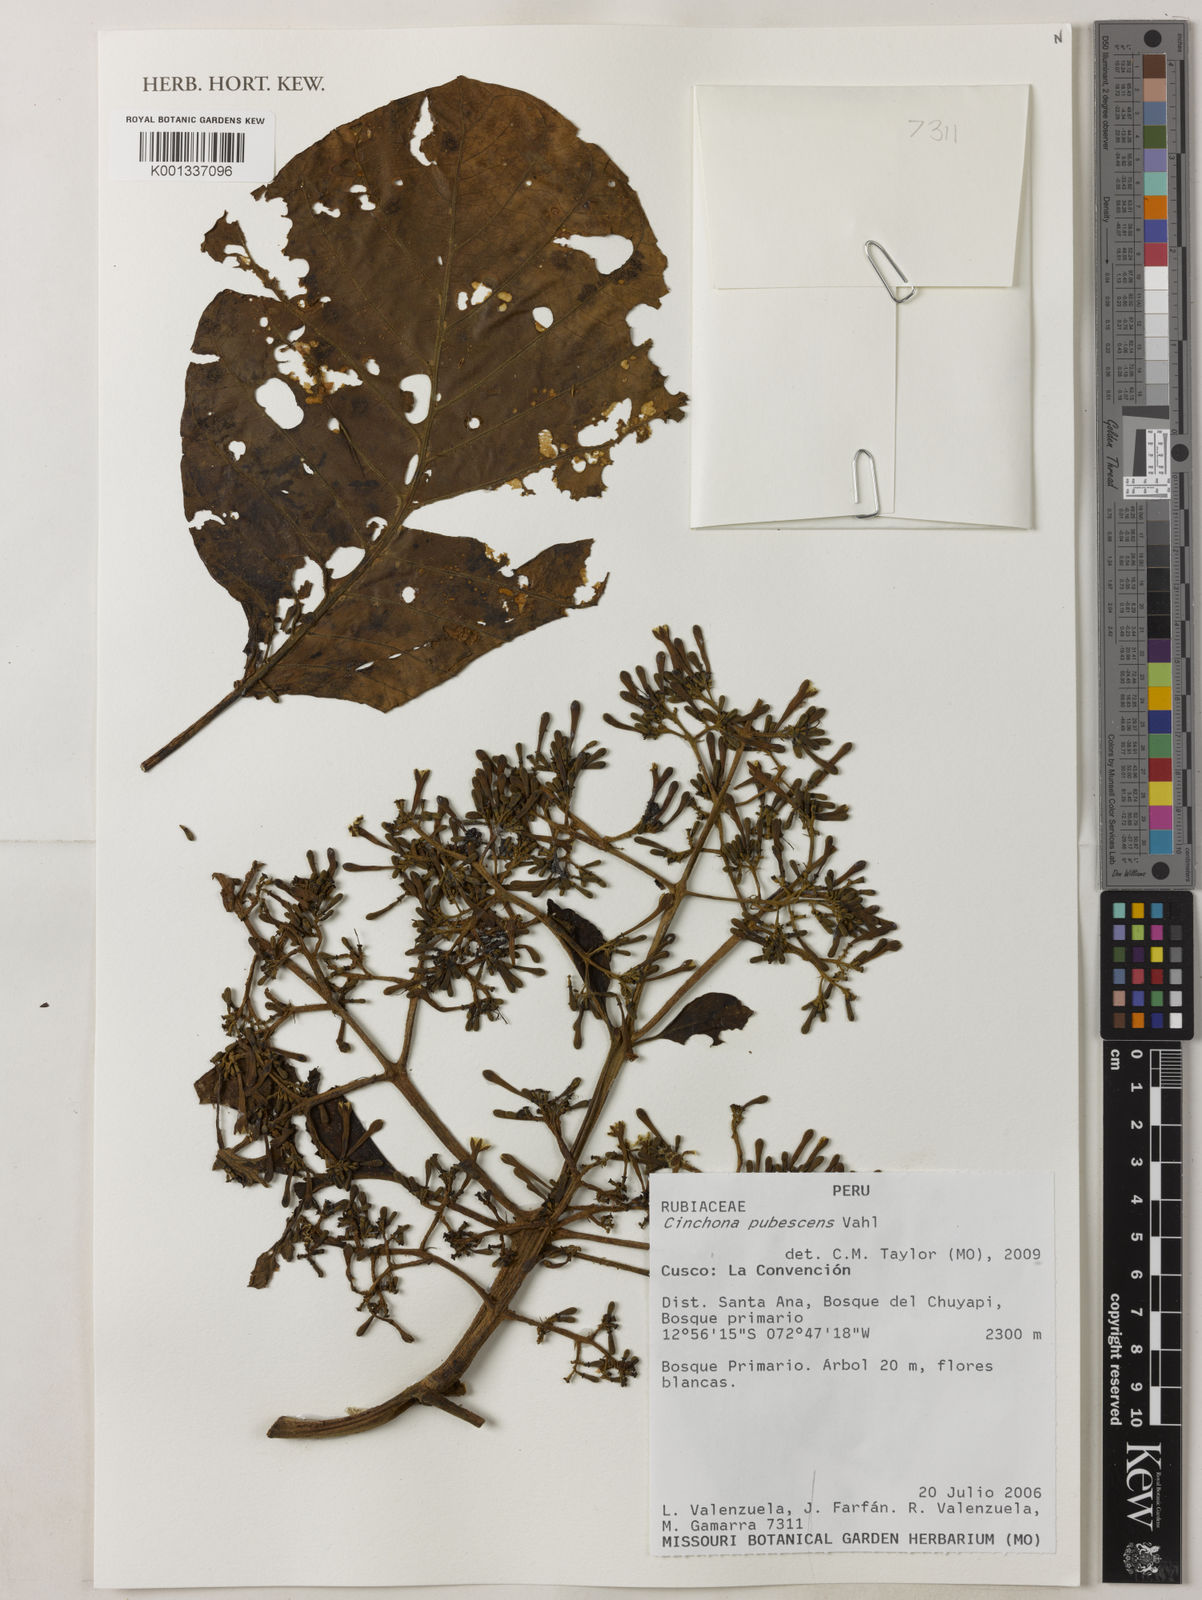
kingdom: Plantae
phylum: Tracheophyta
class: Magnoliopsida
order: Gentianales
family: Rubiaceae
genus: Cinchona
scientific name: Cinchona pubescens
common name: Quinine
